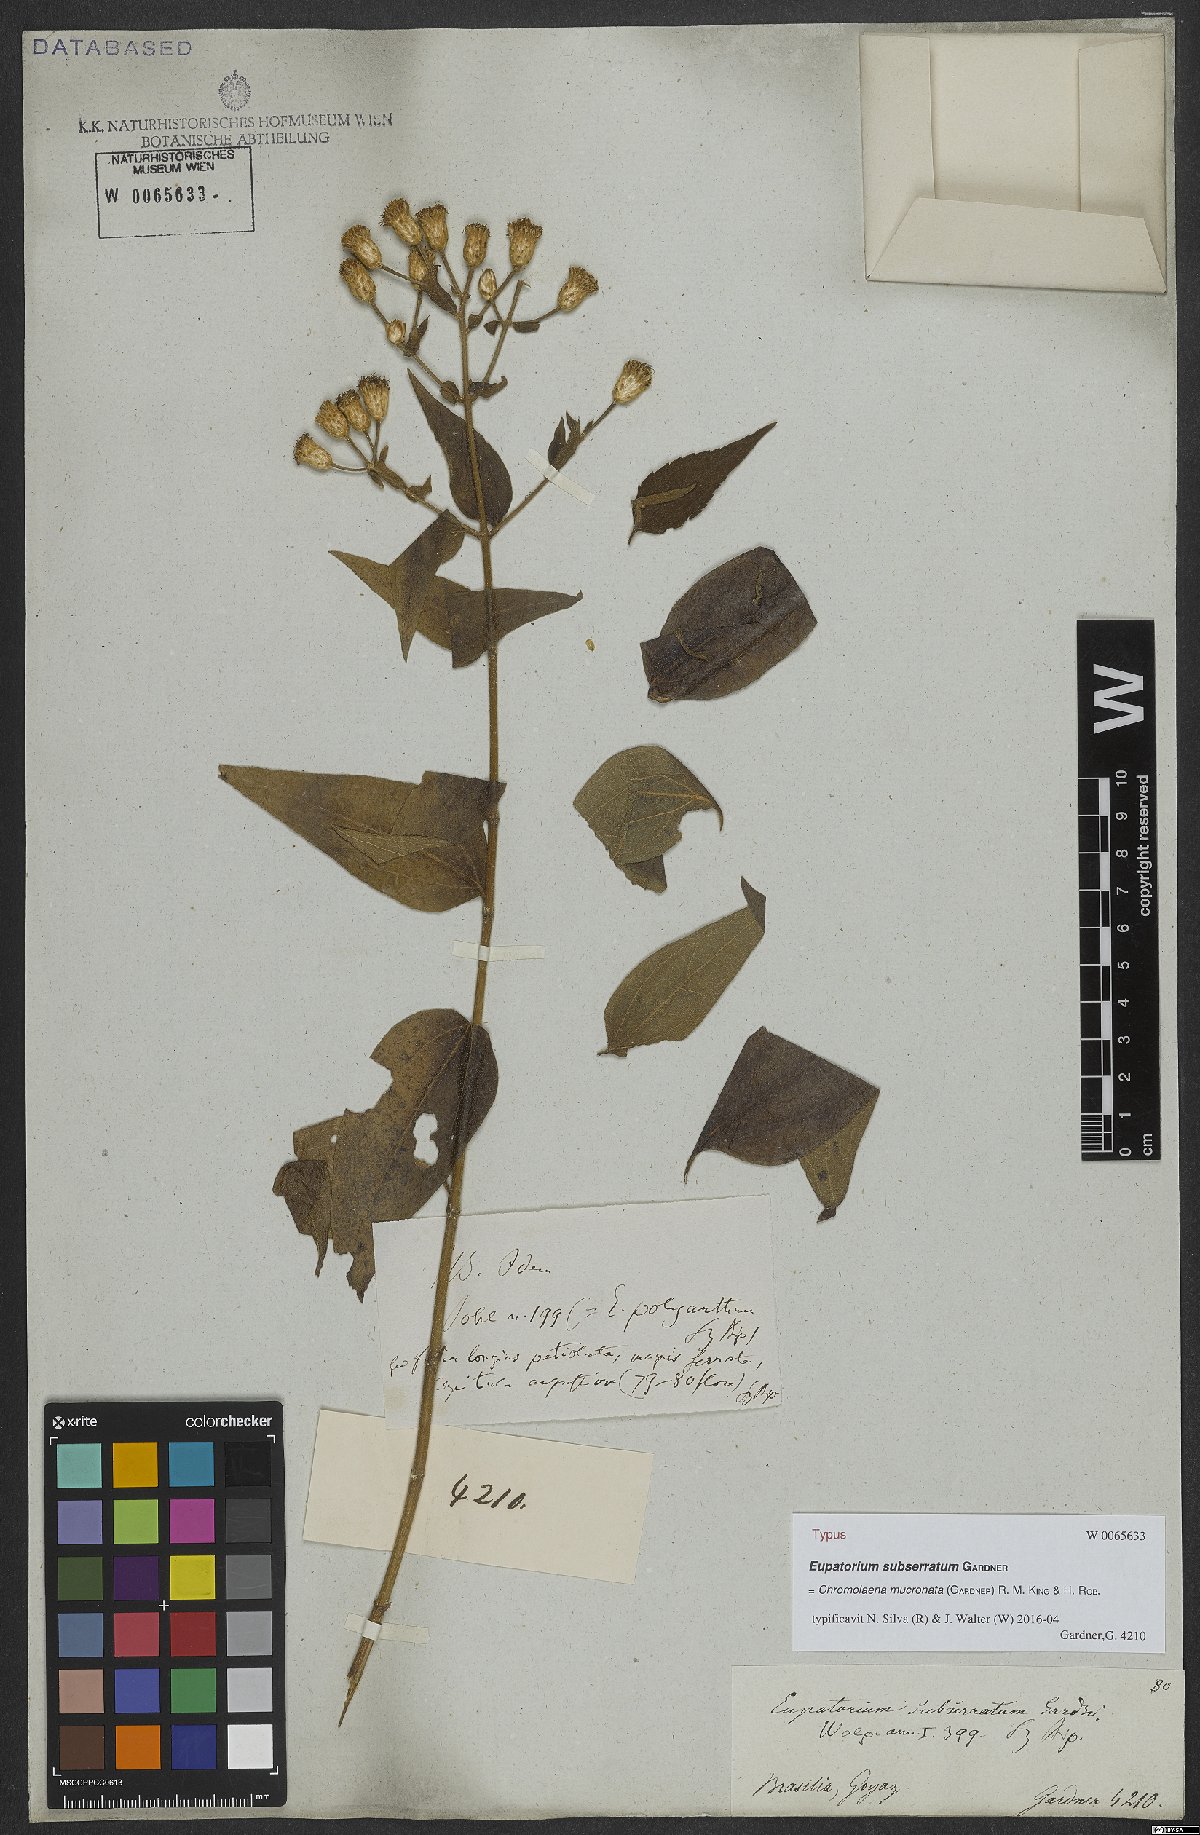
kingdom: Plantae
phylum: Tracheophyta
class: Magnoliopsida
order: Asterales
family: Asteraceae
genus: Chromolaena
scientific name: Chromolaena mucronata
